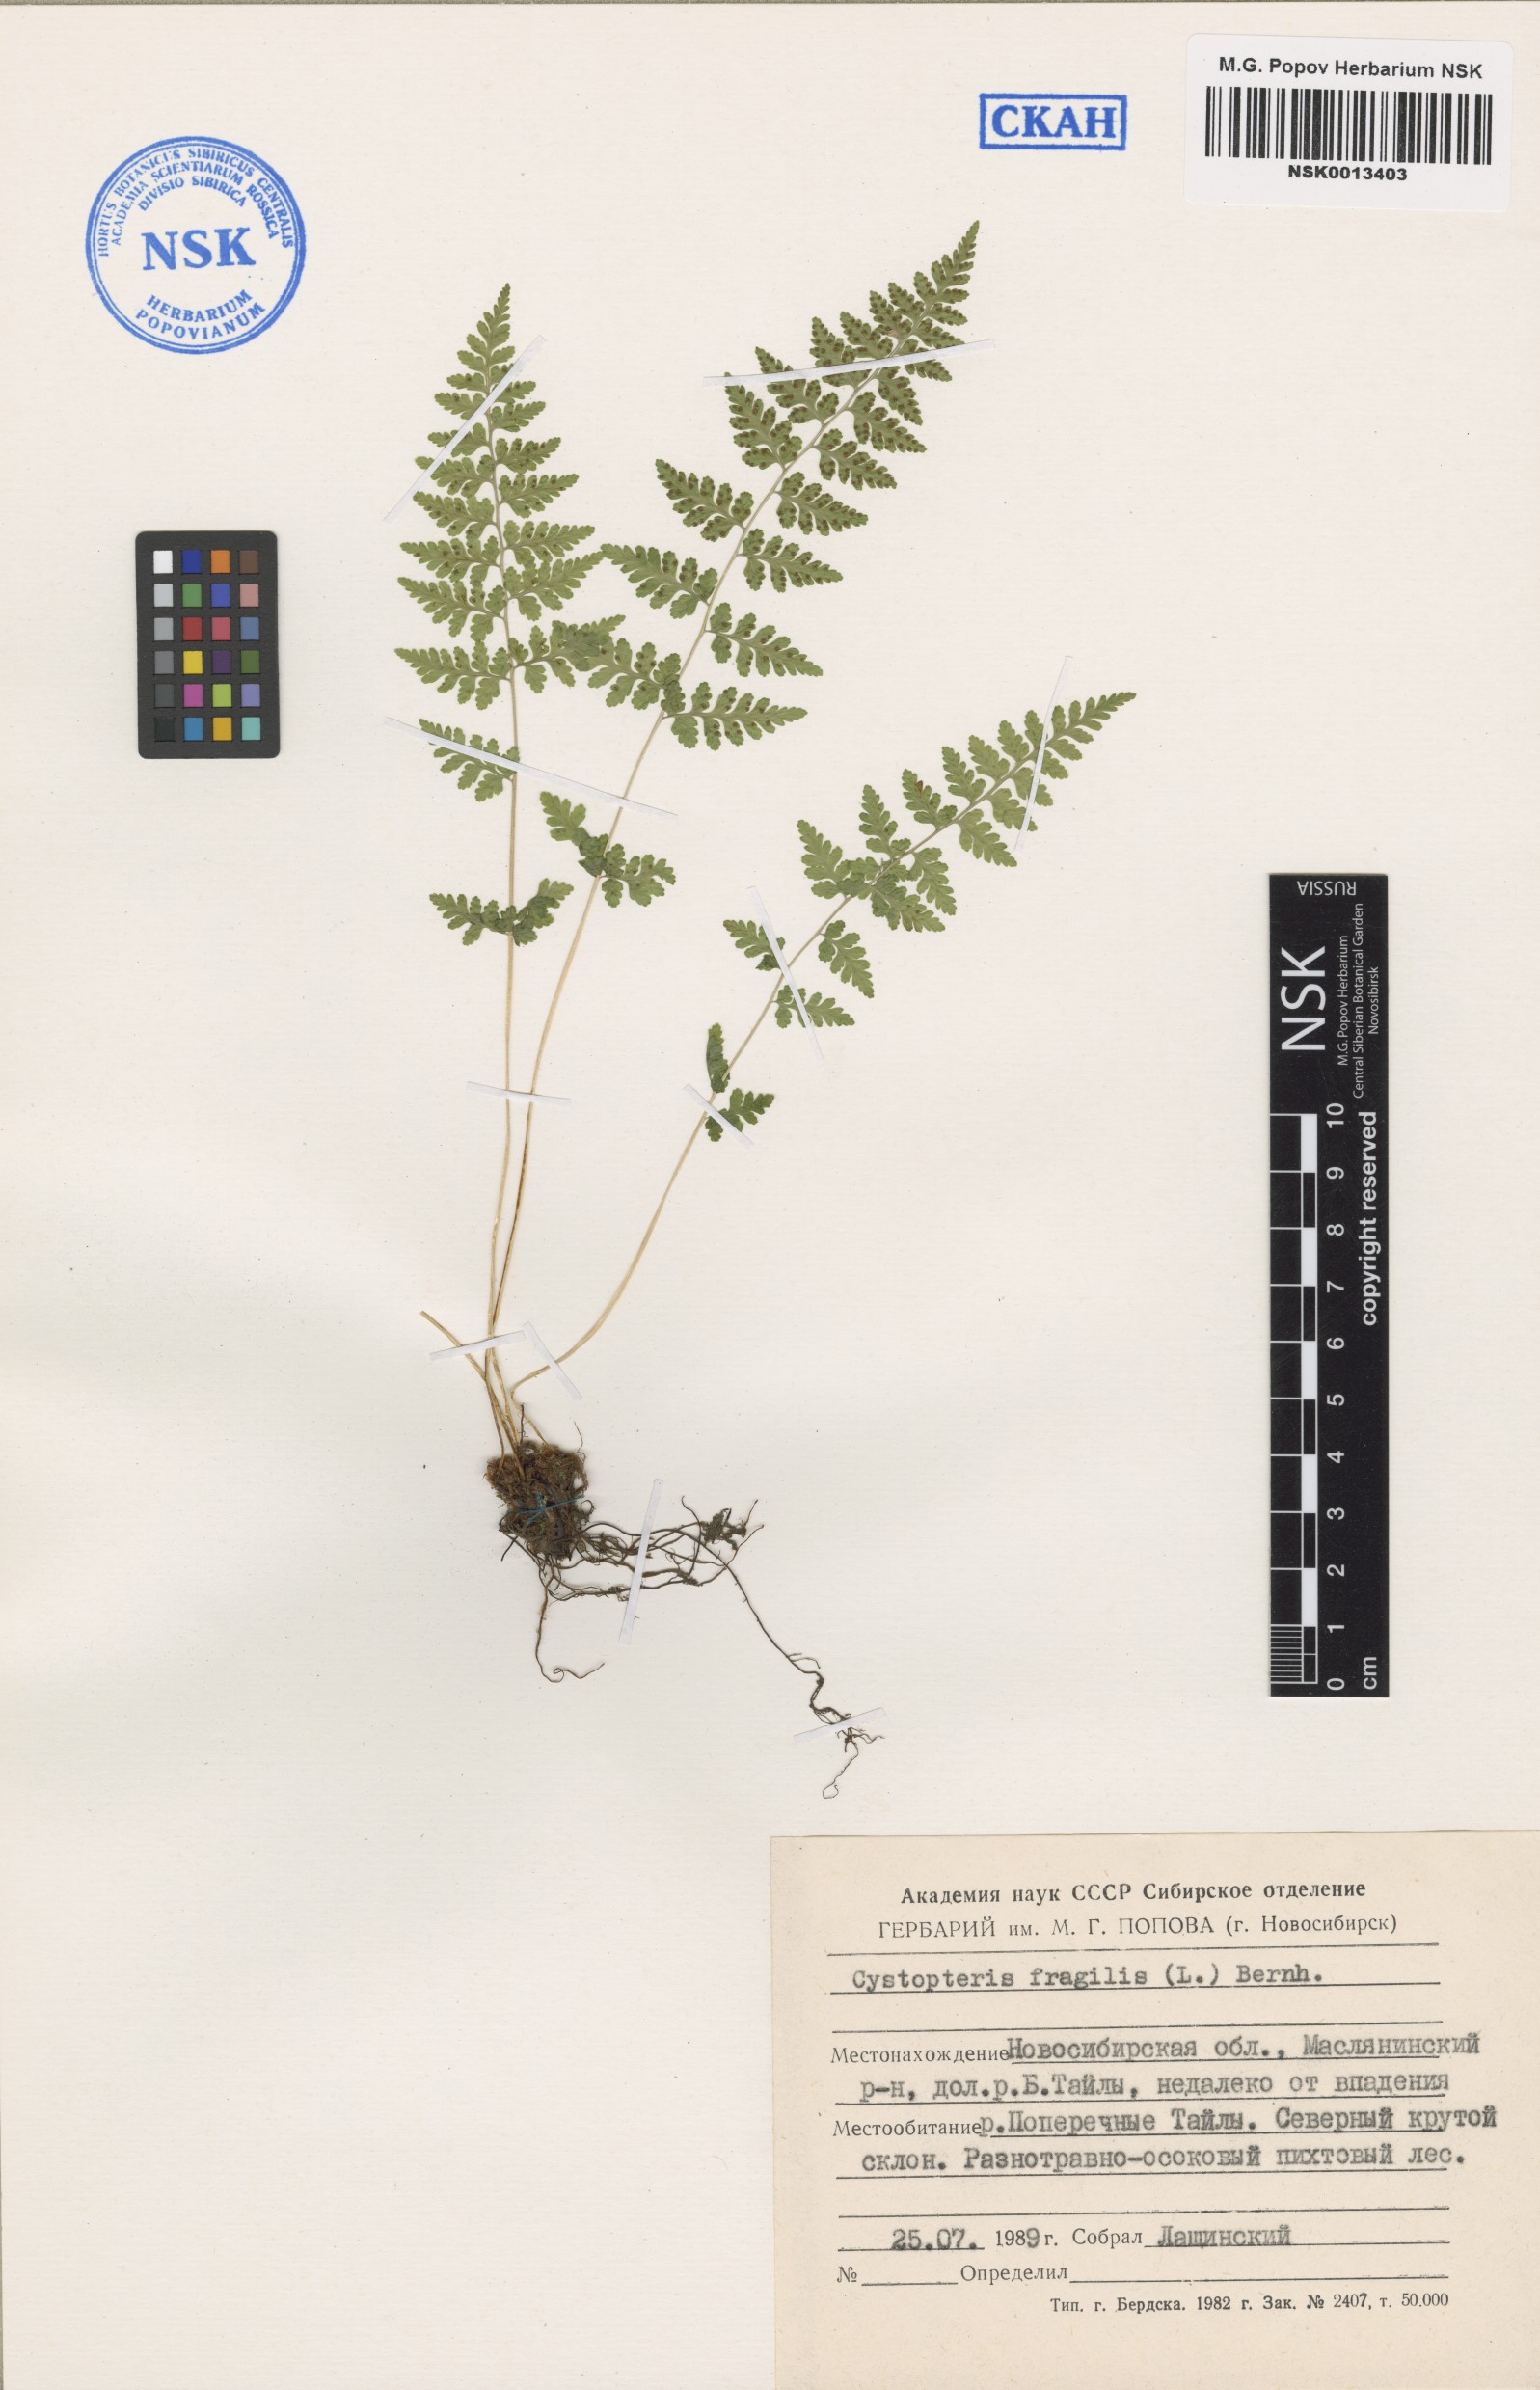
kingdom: Plantae
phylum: Tracheophyta
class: Polypodiopsida
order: Polypodiales
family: Cystopteridaceae
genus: Cystopteris
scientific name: Cystopteris fragilis
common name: Brittle bladder fern
